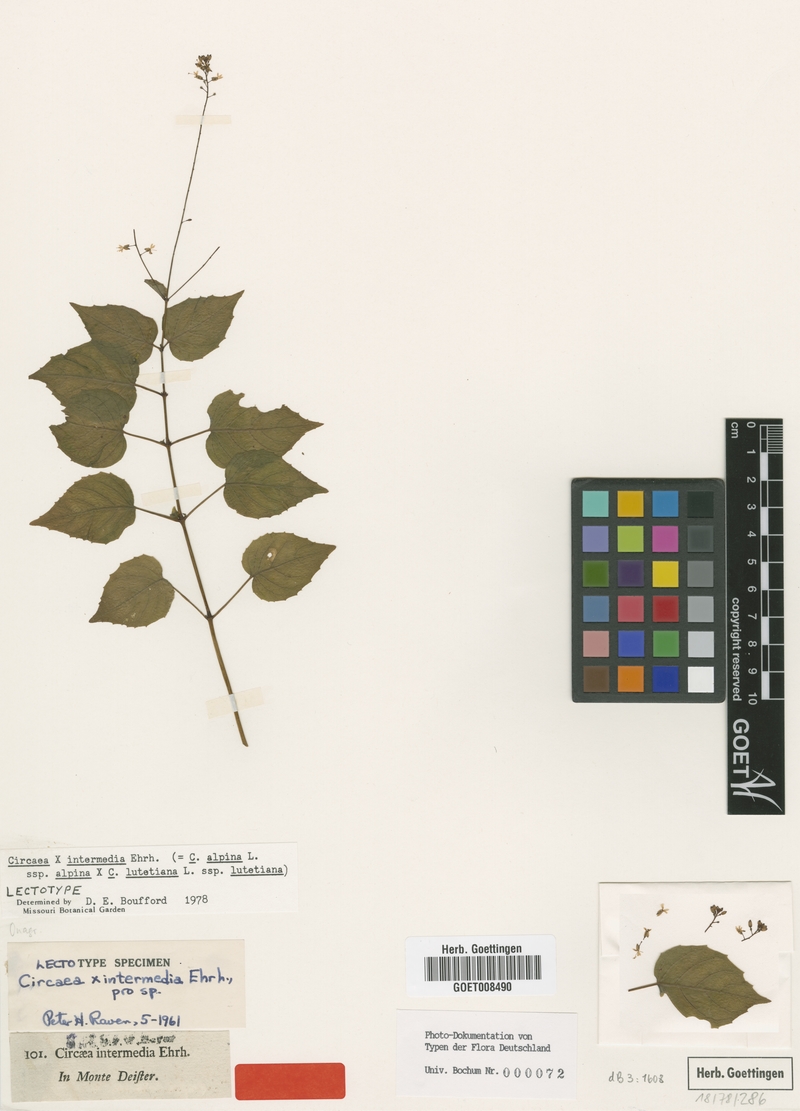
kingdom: Plantae
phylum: Tracheophyta
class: Magnoliopsida
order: Myrtales
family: Onagraceae
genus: Circaea
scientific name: Circaea intermedia
